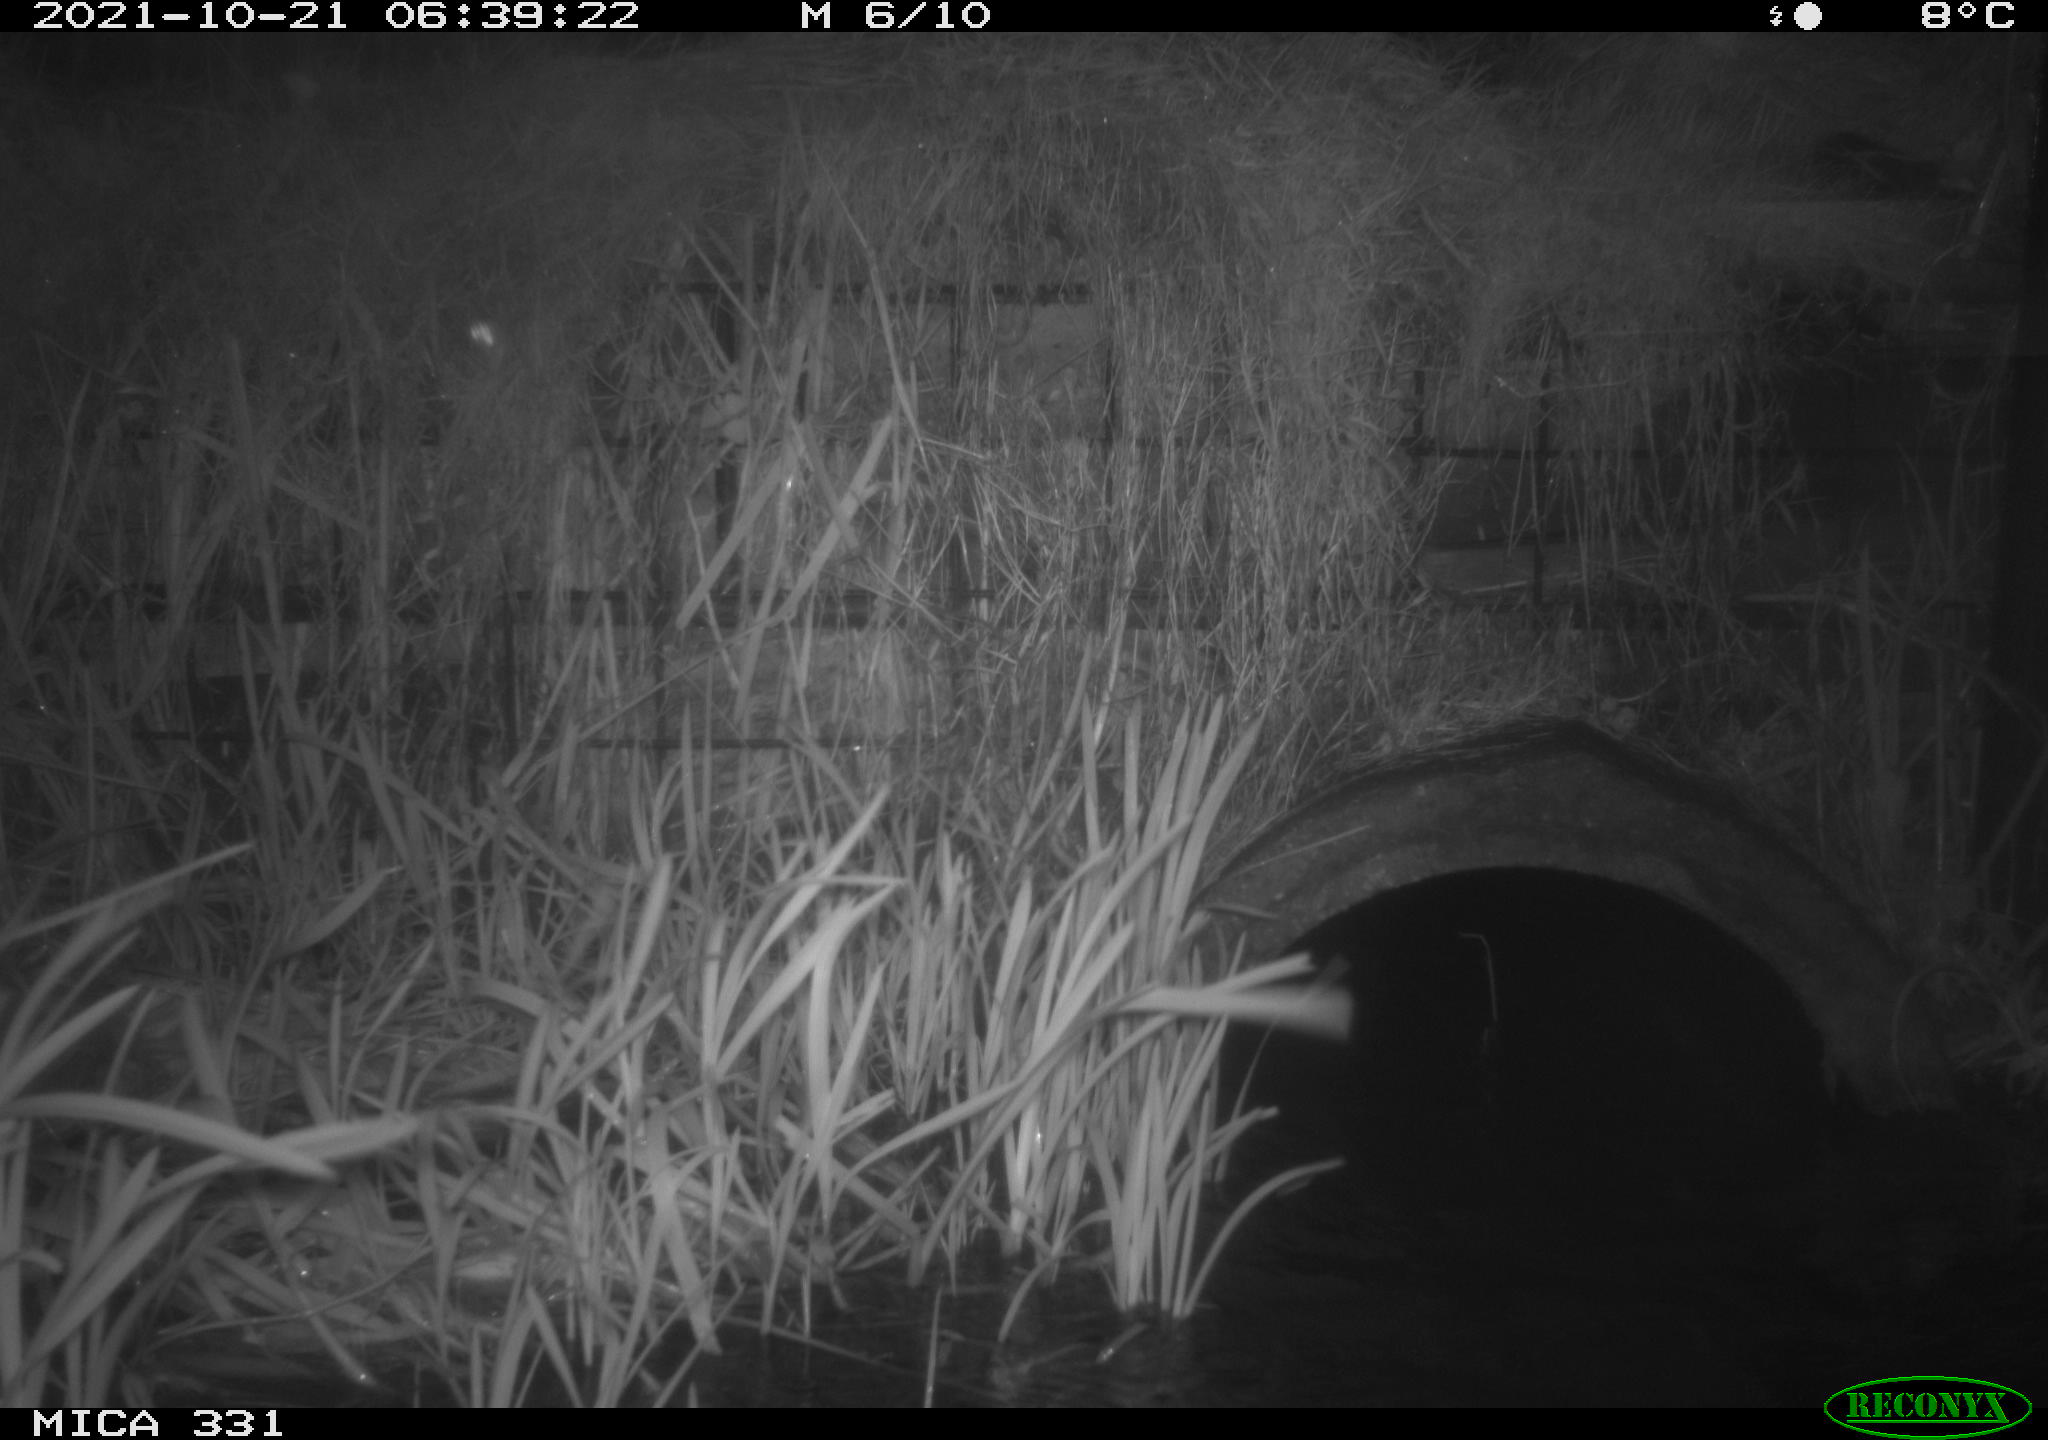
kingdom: Animalia
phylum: Chordata
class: Mammalia
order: Rodentia
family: Muridae
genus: Rattus
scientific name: Rattus norvegicus
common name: Brown rat
